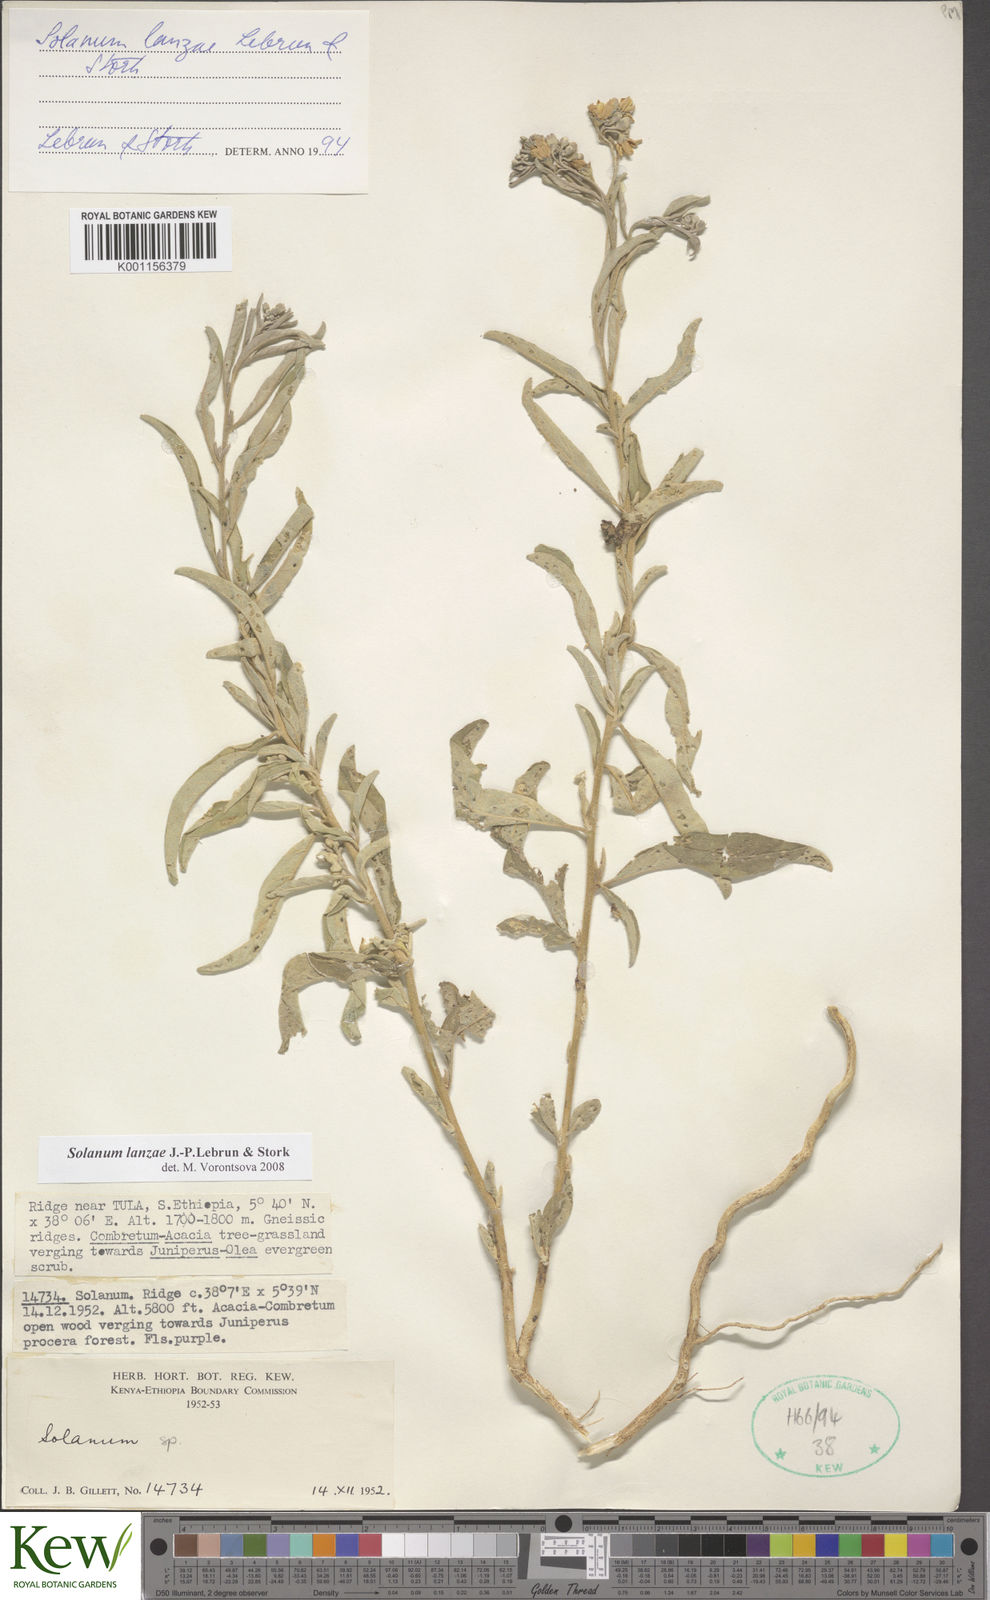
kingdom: Plantae
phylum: Tracheophyta
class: Magnoliopsida
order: Solanales
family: Solanaceae
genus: Solanum
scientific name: Solanum lanzae
